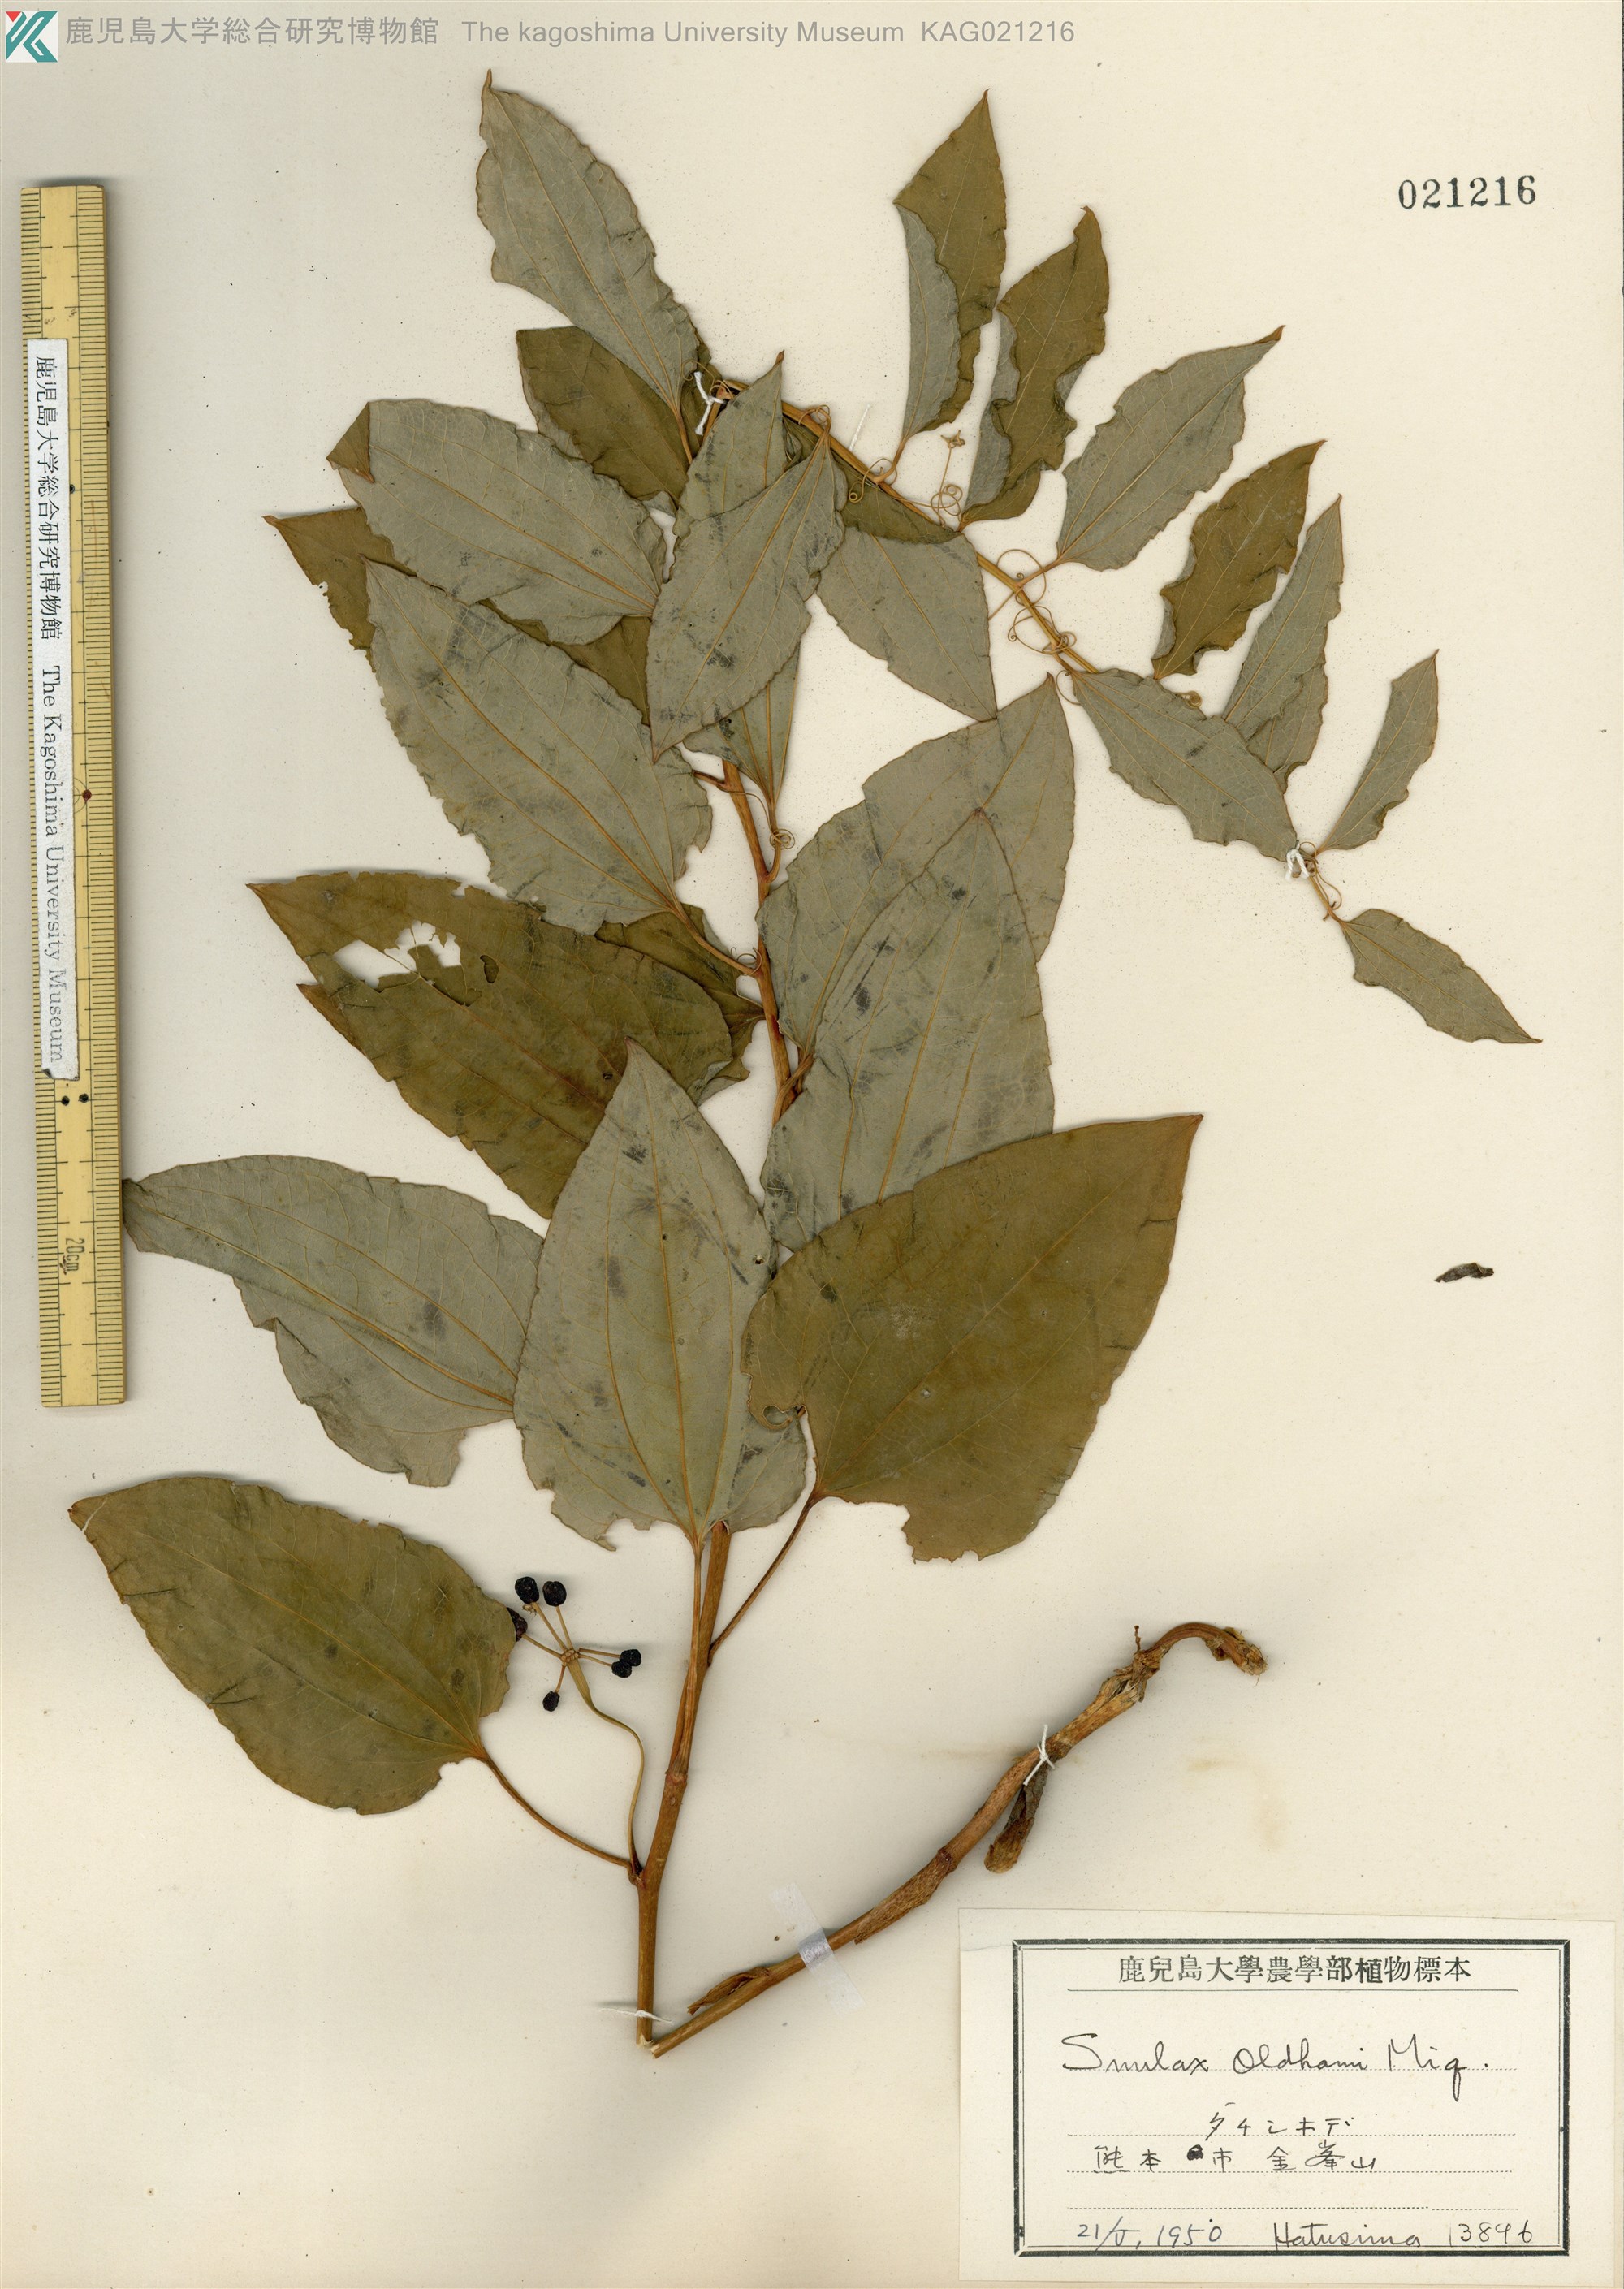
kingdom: Plantae
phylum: Tracheophyta
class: Liliopsida
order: Liliales
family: Smilacaceae
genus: Smilax
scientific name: Smilax nipponica
